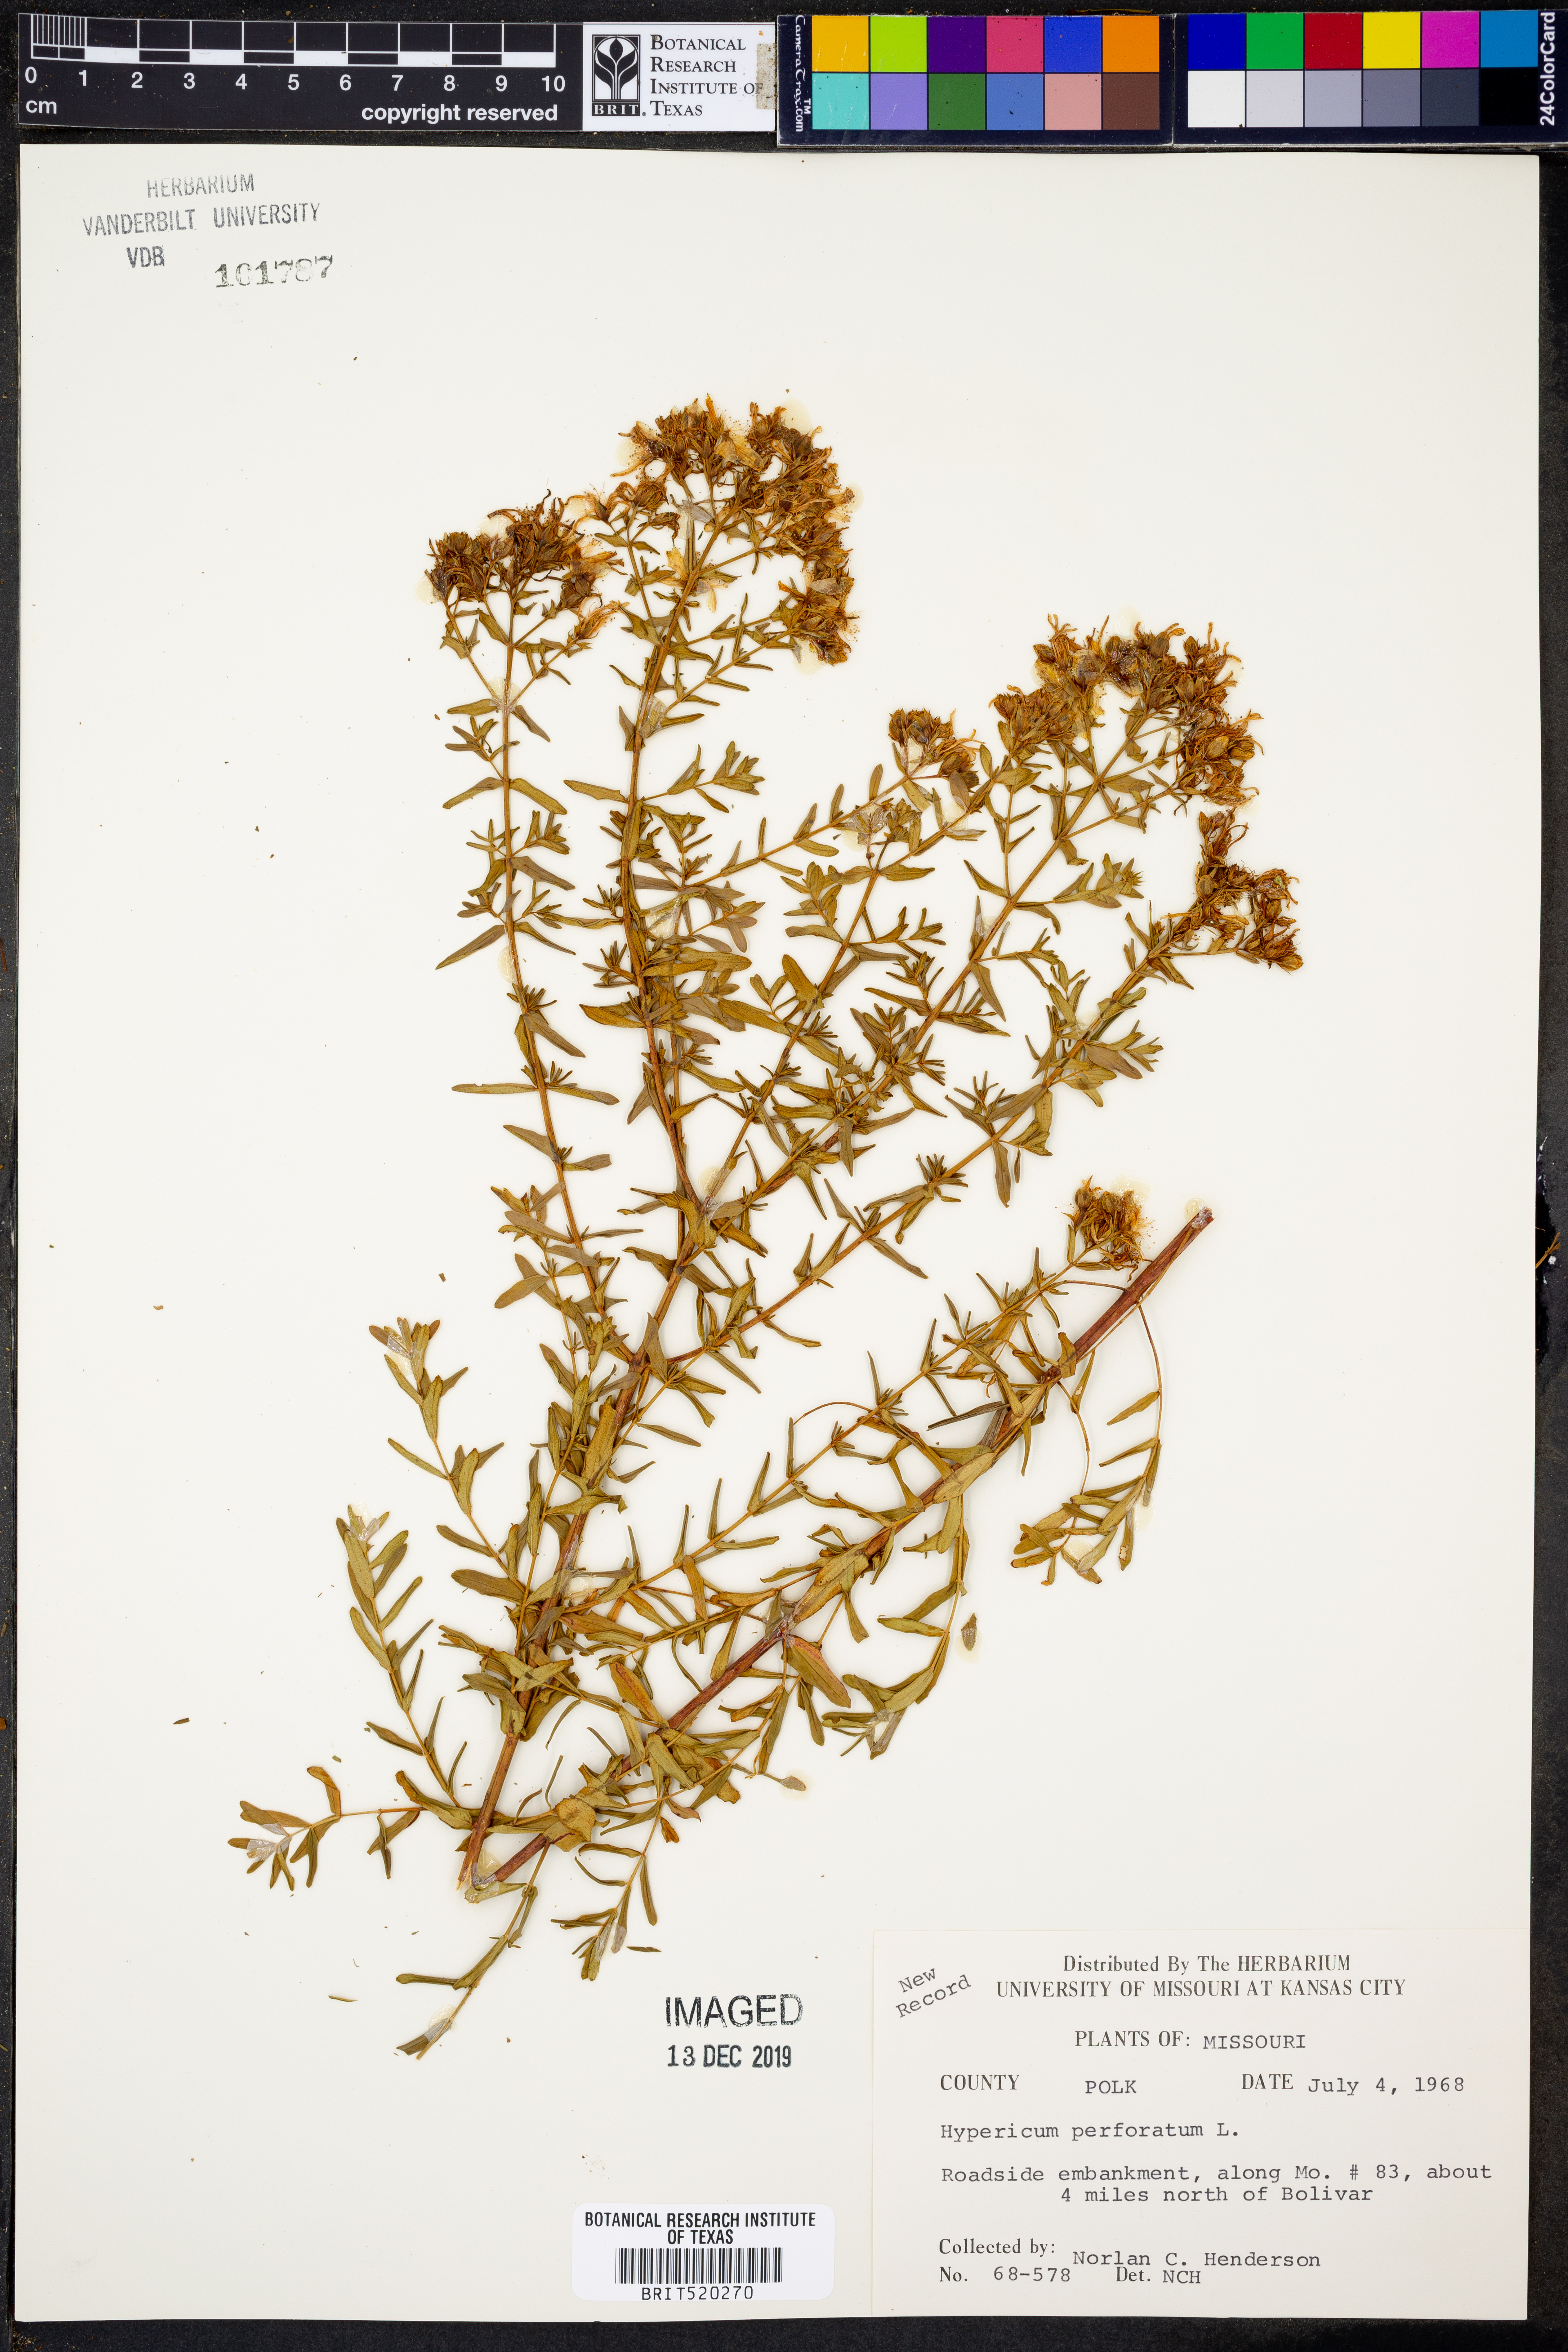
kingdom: Plantae
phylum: Tracheophyta
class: Magnoliopsida
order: Malpighiales
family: Hypericaceae
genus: Hypericum
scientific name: Hypericum perforatum
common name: Common st. johnswort
